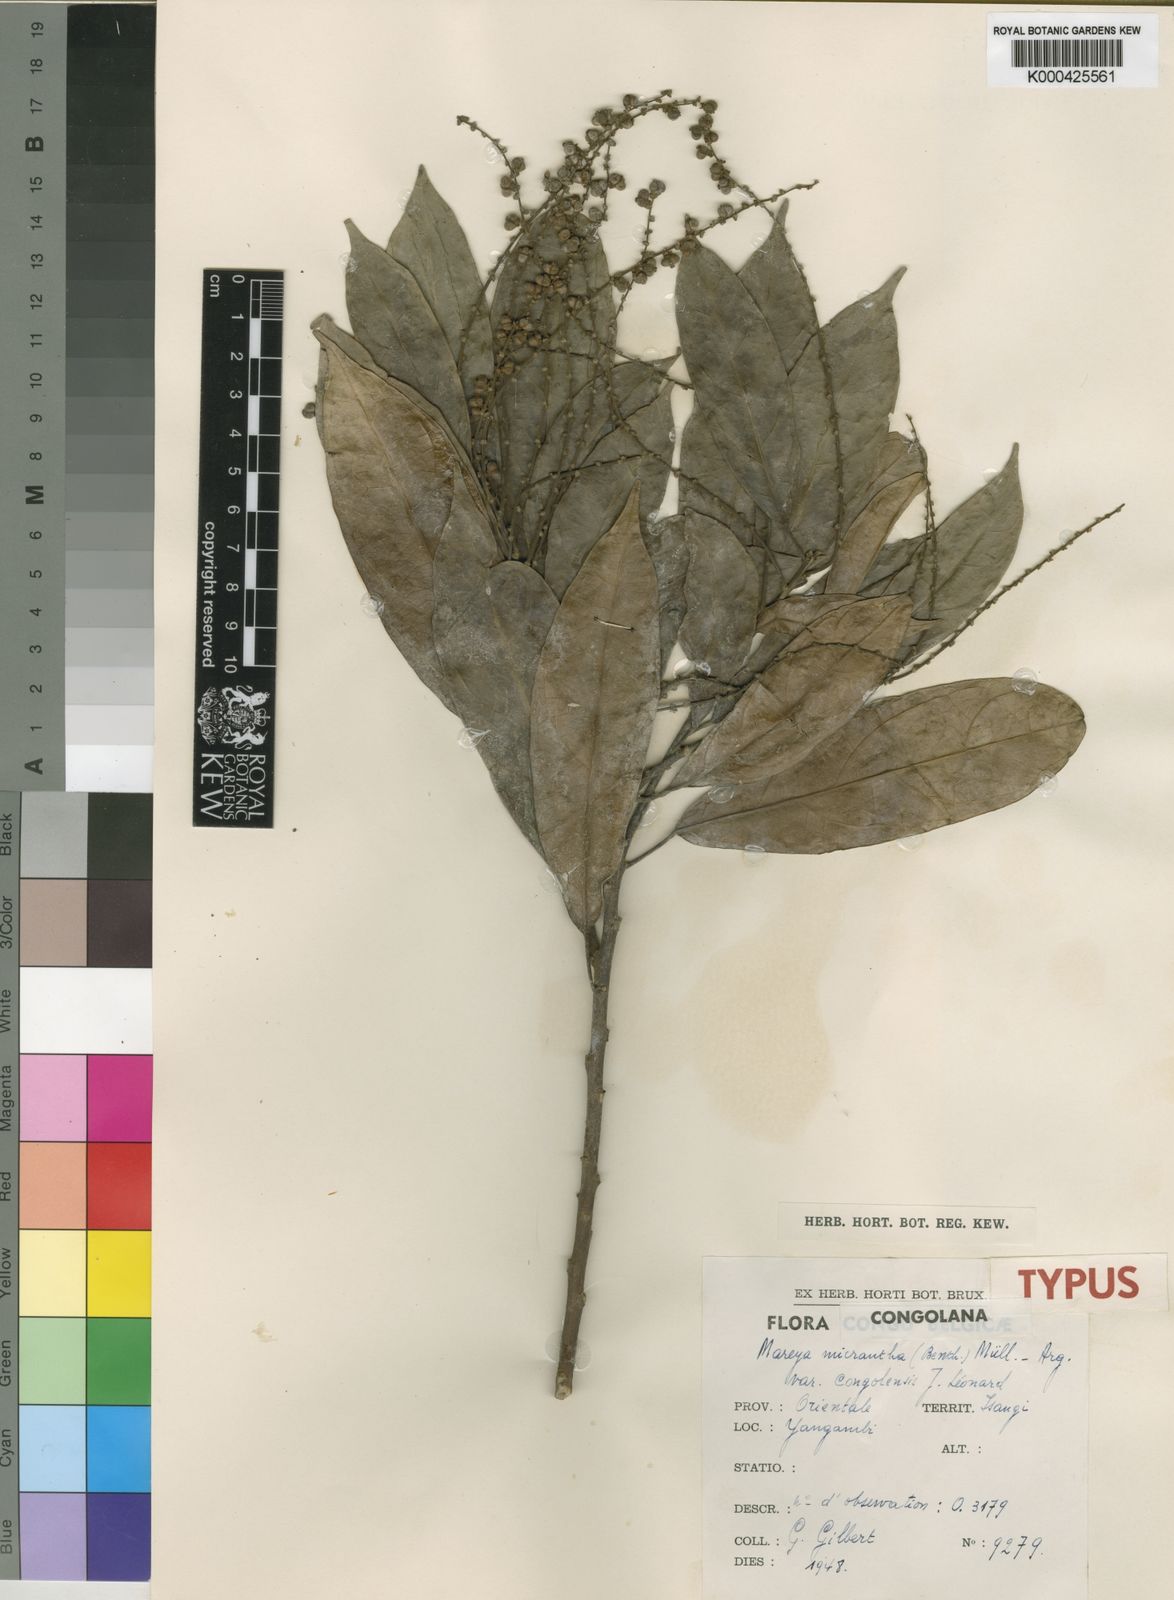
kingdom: Plantae
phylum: Tracheophyta
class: Magnoliopsida
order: Malpighiales
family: Euphorbiaceae
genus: Mareya
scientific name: Mareya
